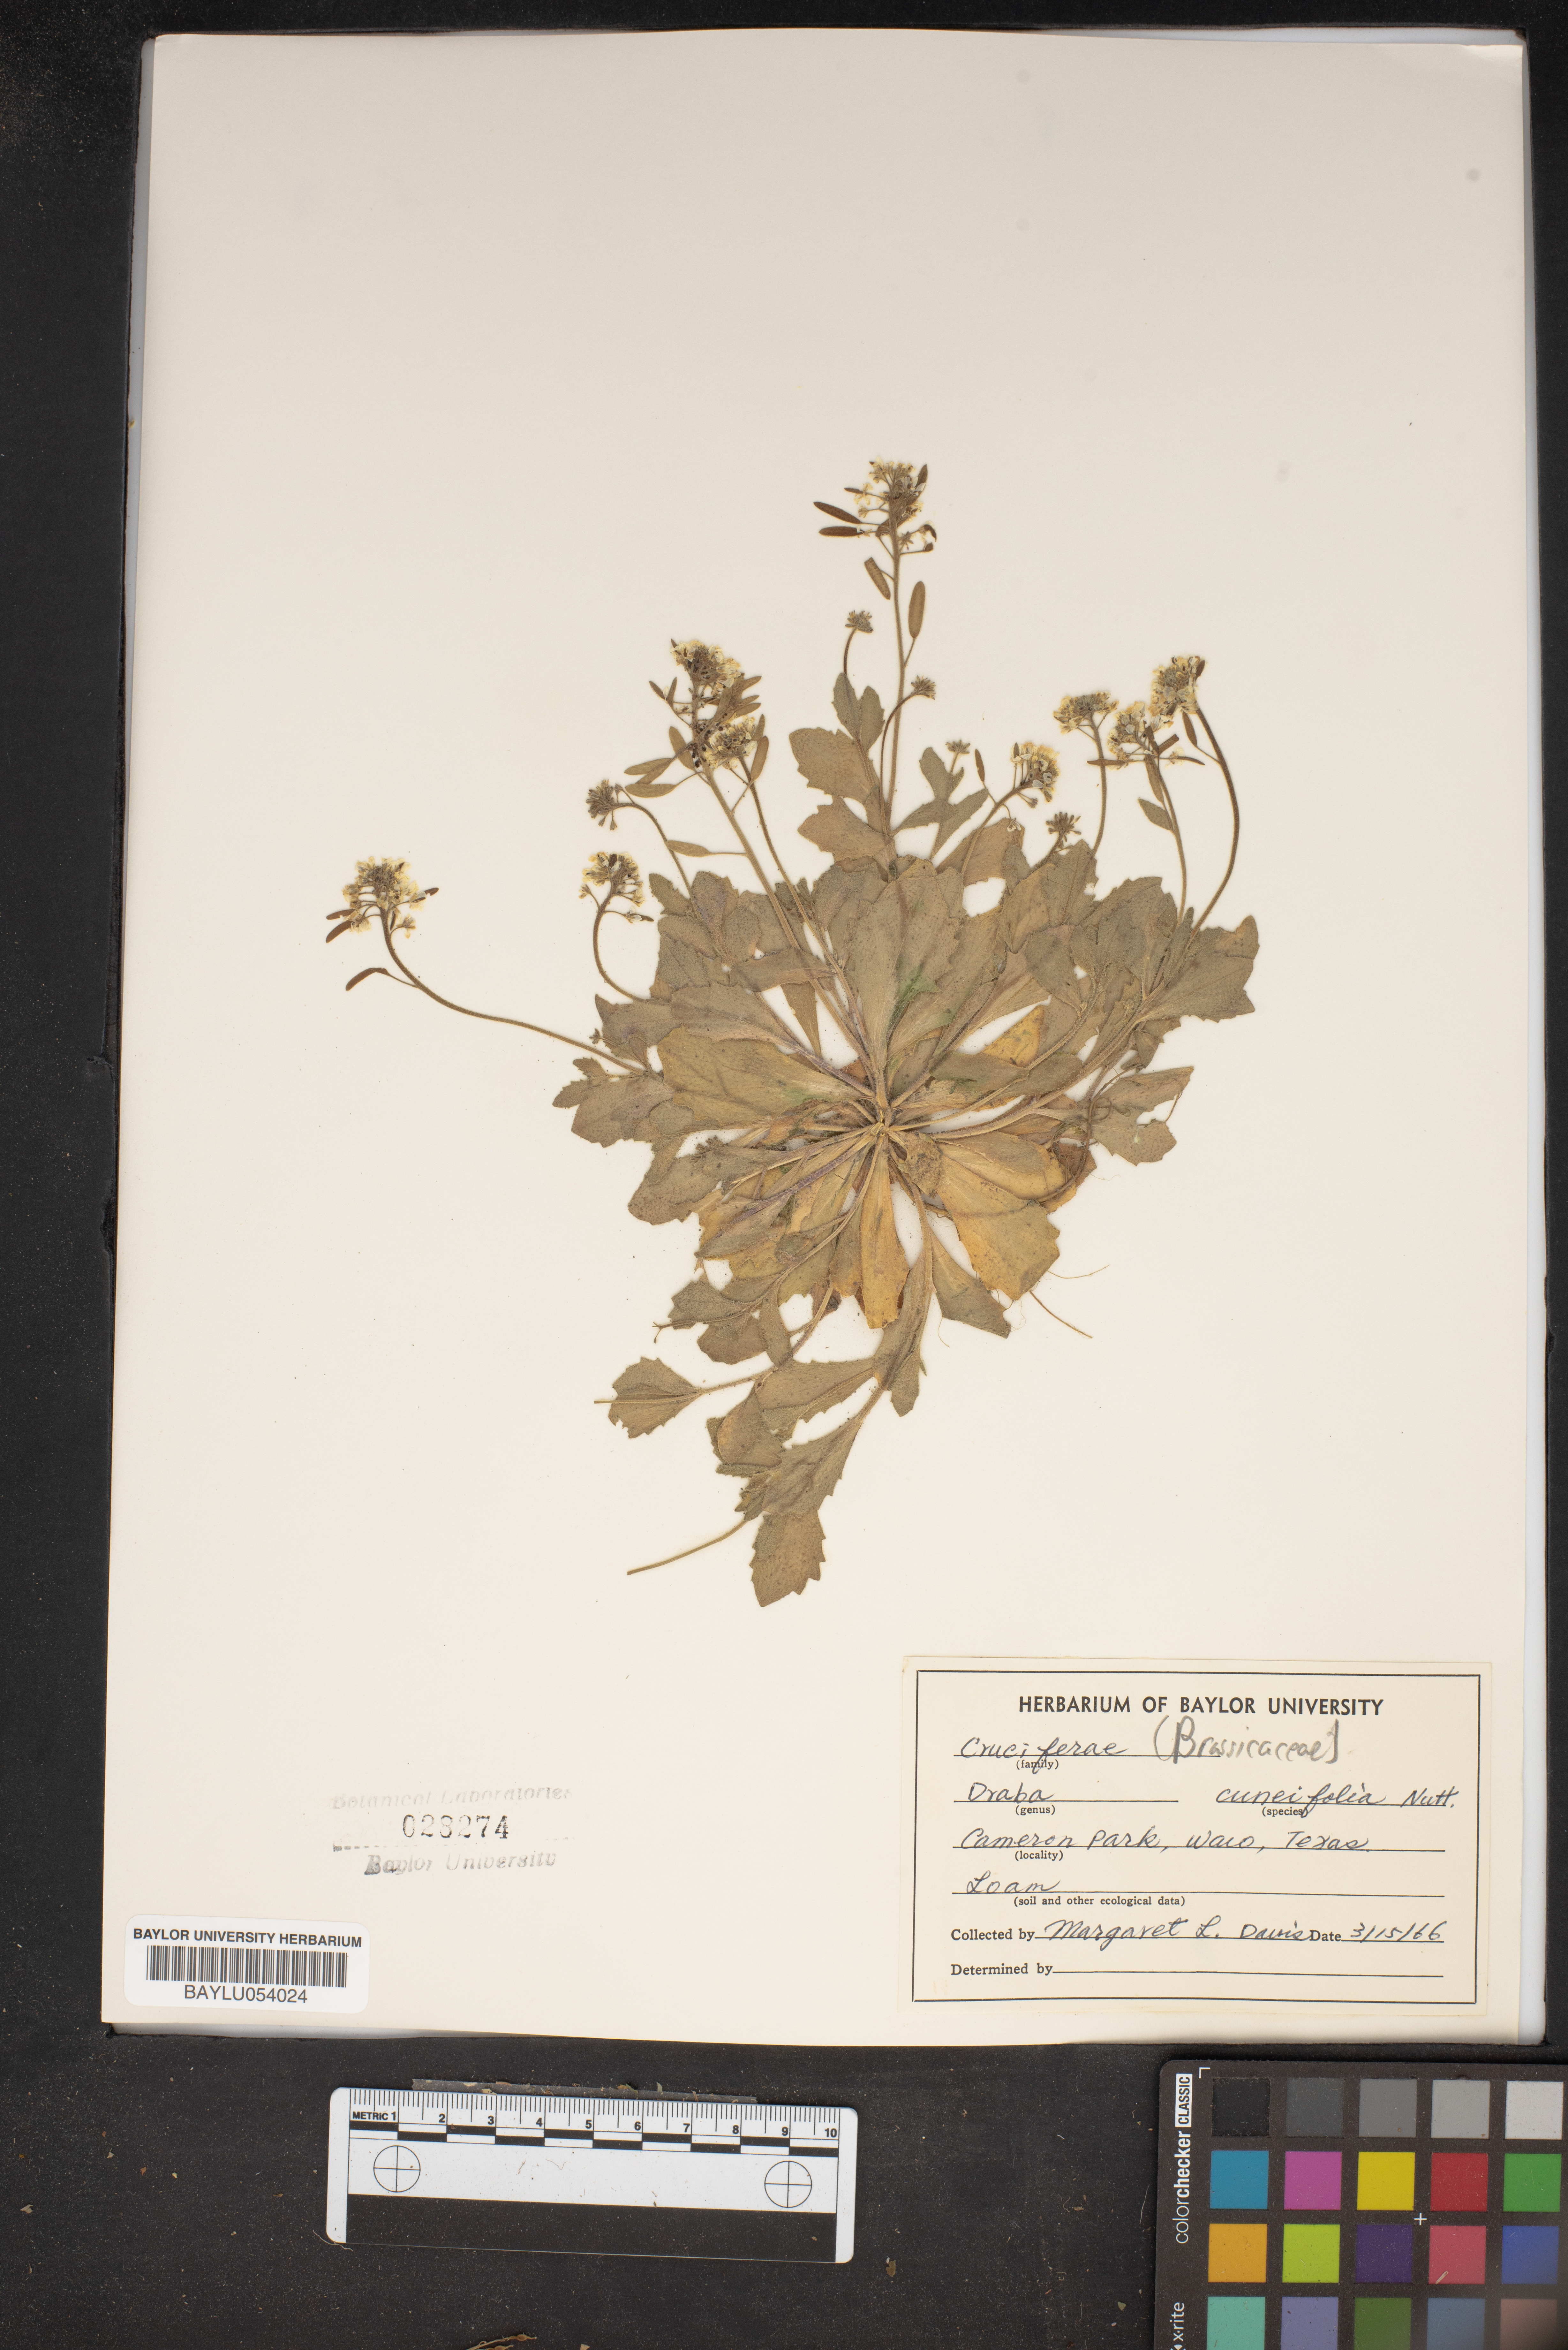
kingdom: Plantae
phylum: Tracheophyta
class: Magnoliopsida
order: Brassicales
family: Brassicaceae
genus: Tomostima
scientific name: Tomostima cuneifolia
